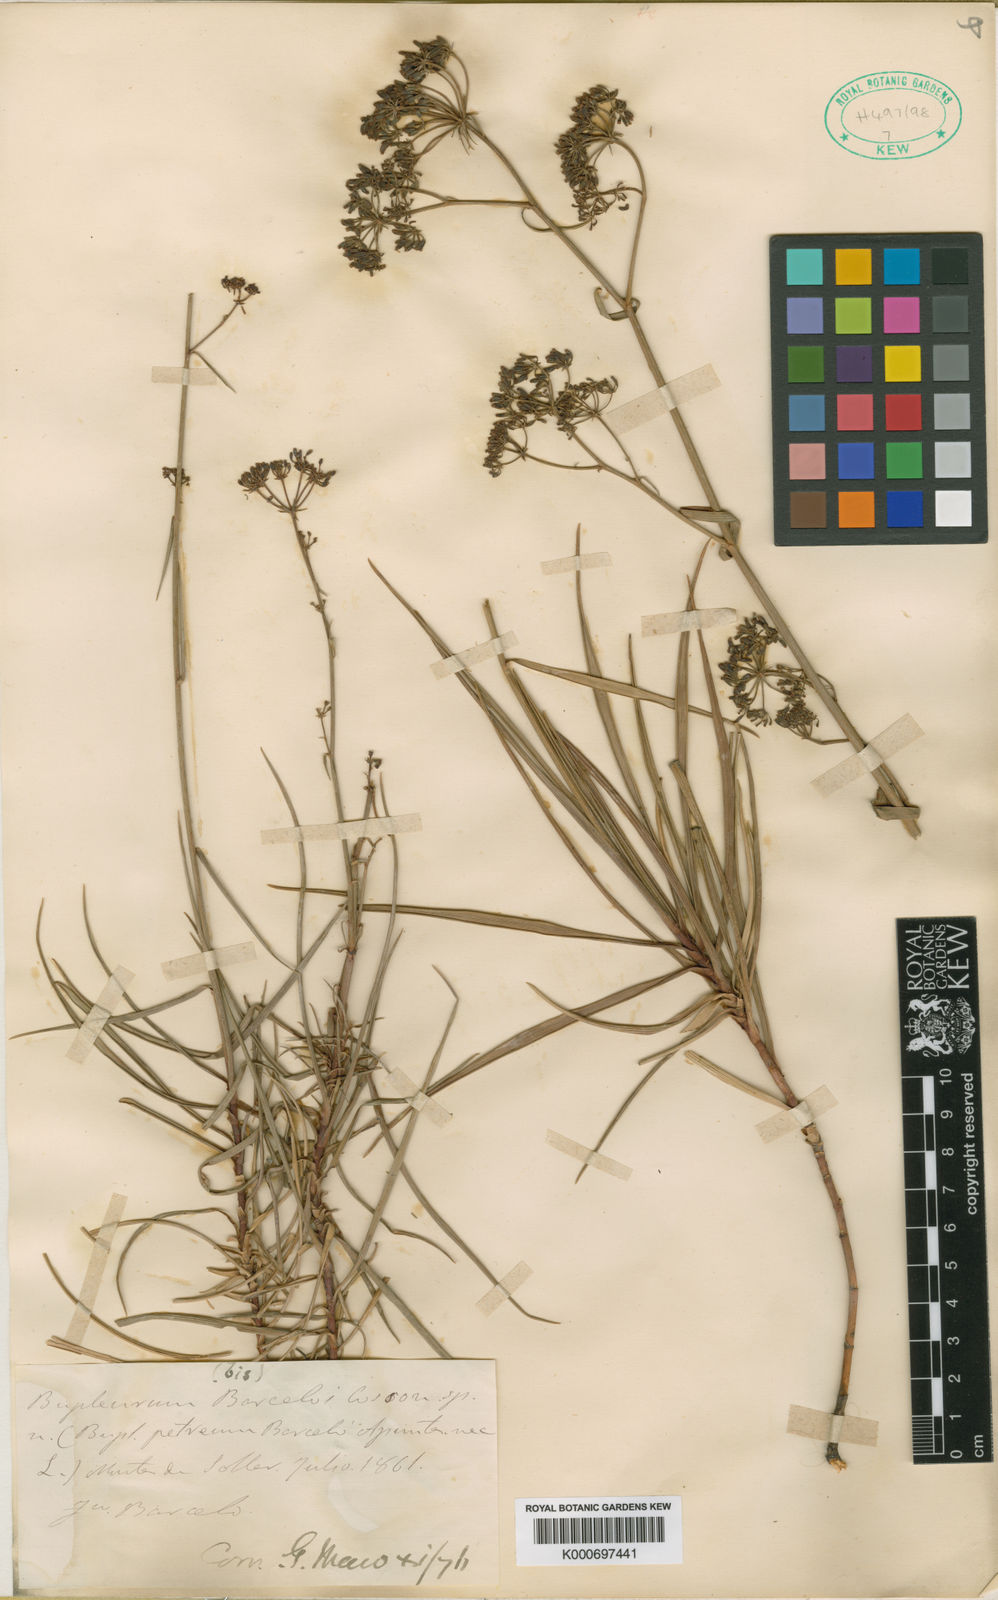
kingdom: Plantae
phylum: Tracheophyta
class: Magnoliopsida
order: Apiales
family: Apiaceae
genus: Bupleurum
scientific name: Bupleurum dianthifolium
